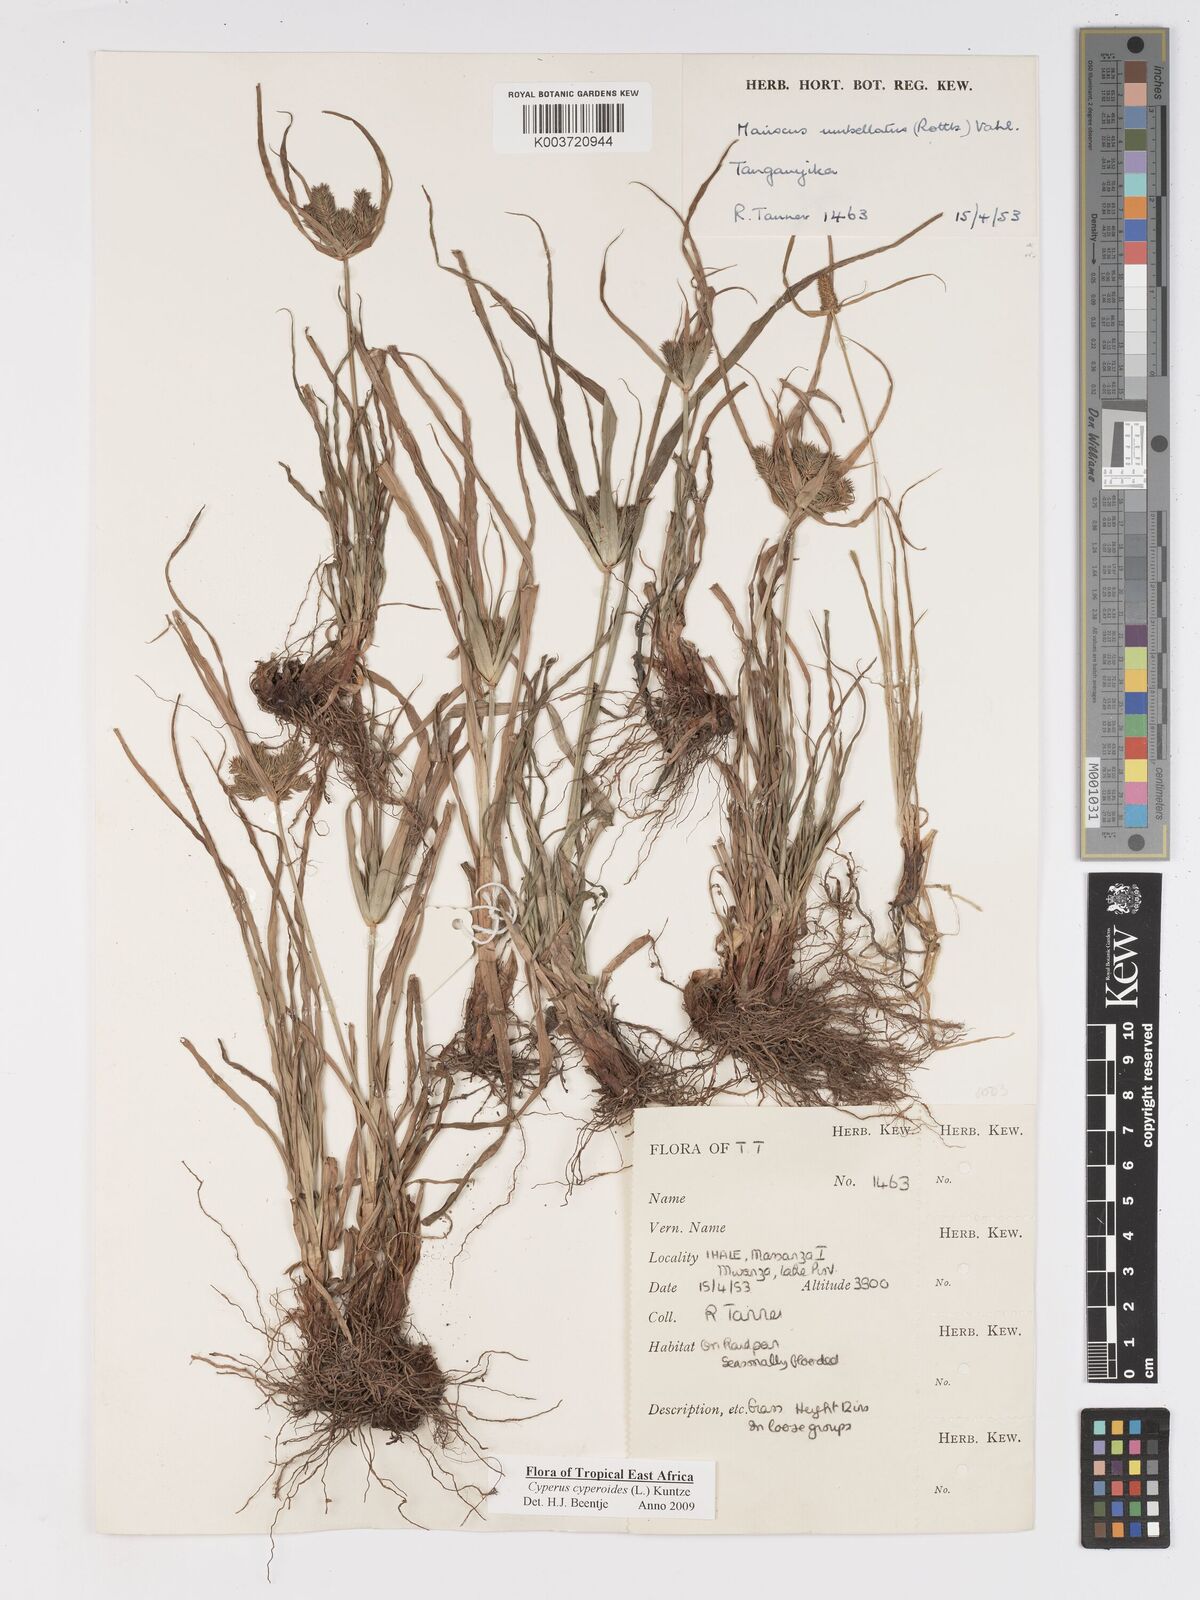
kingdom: Plantae
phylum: Tracheophyta
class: Liliopsida
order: Poales
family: Cyperaceae
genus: Cyperus
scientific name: Cyperus macrocarpus
